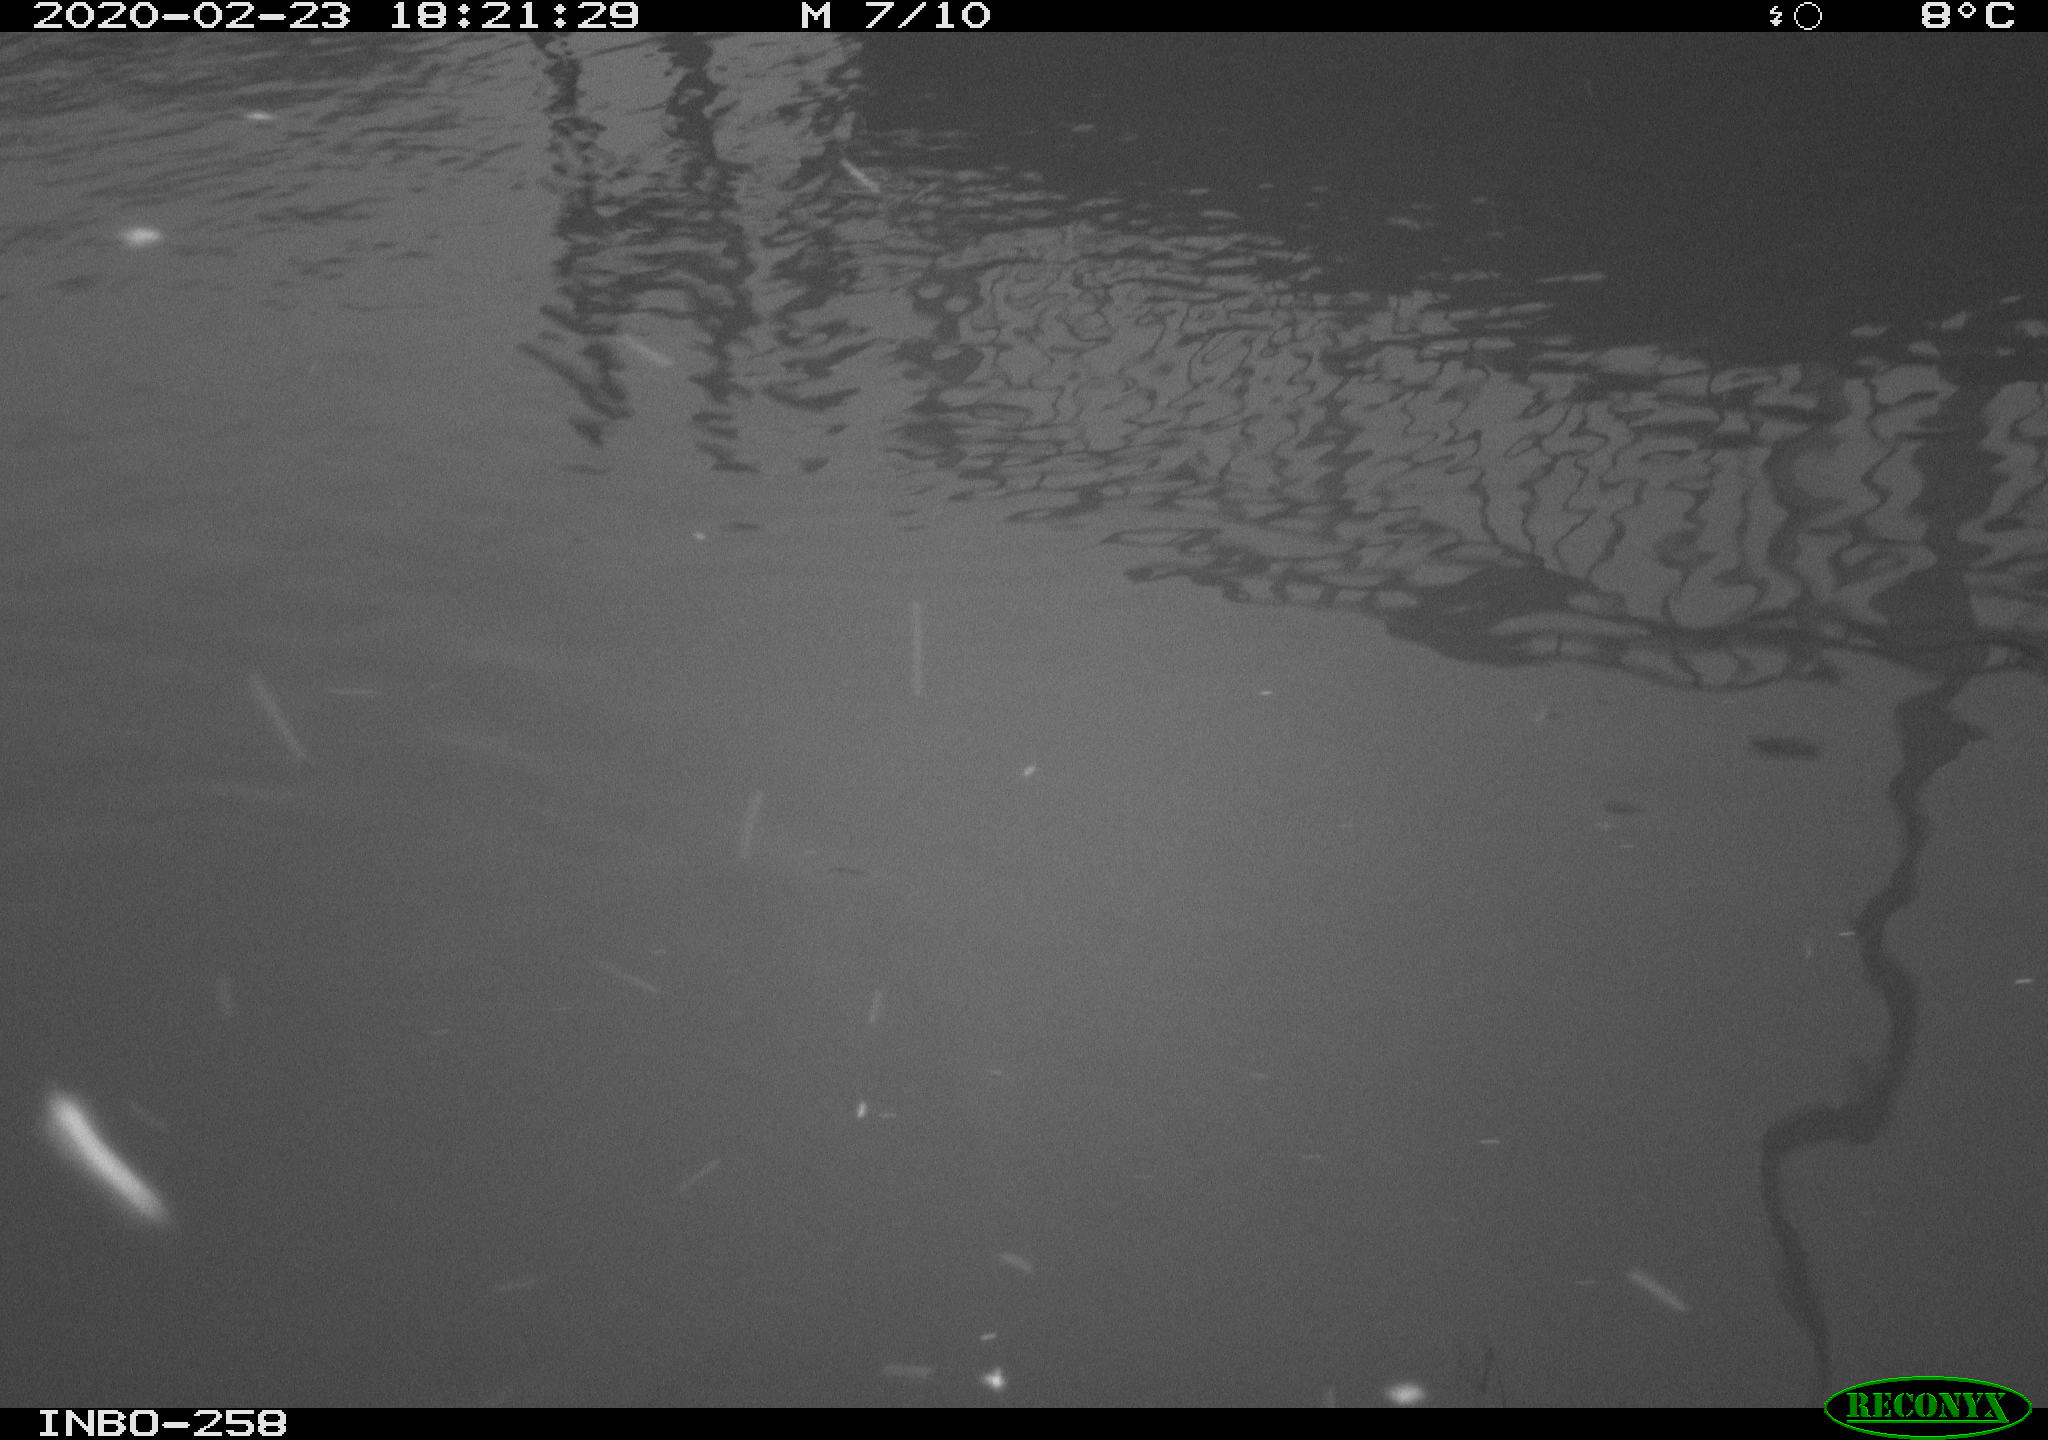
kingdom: Animalia
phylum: Chordata
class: Aves
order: Gruiformes
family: Rallidae
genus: Gallinula
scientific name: Gallinula chloropus
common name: Common moorhen
